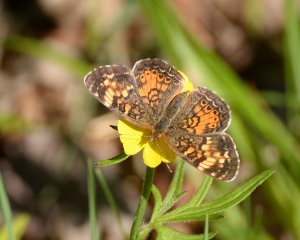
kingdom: Animalia
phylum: Arthropoda
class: Insecta
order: Lepidoptera
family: Nymphalidae
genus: Phyciodes
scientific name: Phyciodes tharos
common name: Northern Crescent
